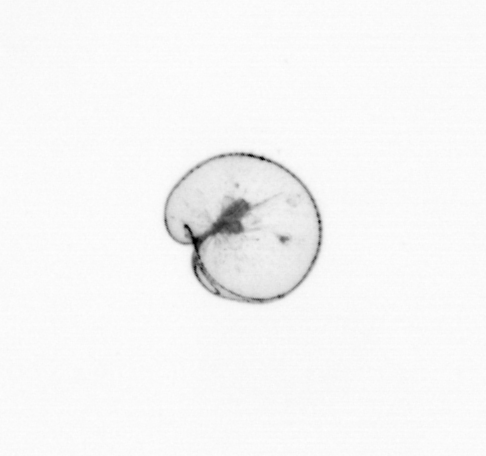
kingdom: Chromista
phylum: Myzozoa
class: Dinophyceae
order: Noctilucales
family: Noctilucaceae
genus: Noctiluca
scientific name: Noctiluca scintillans
